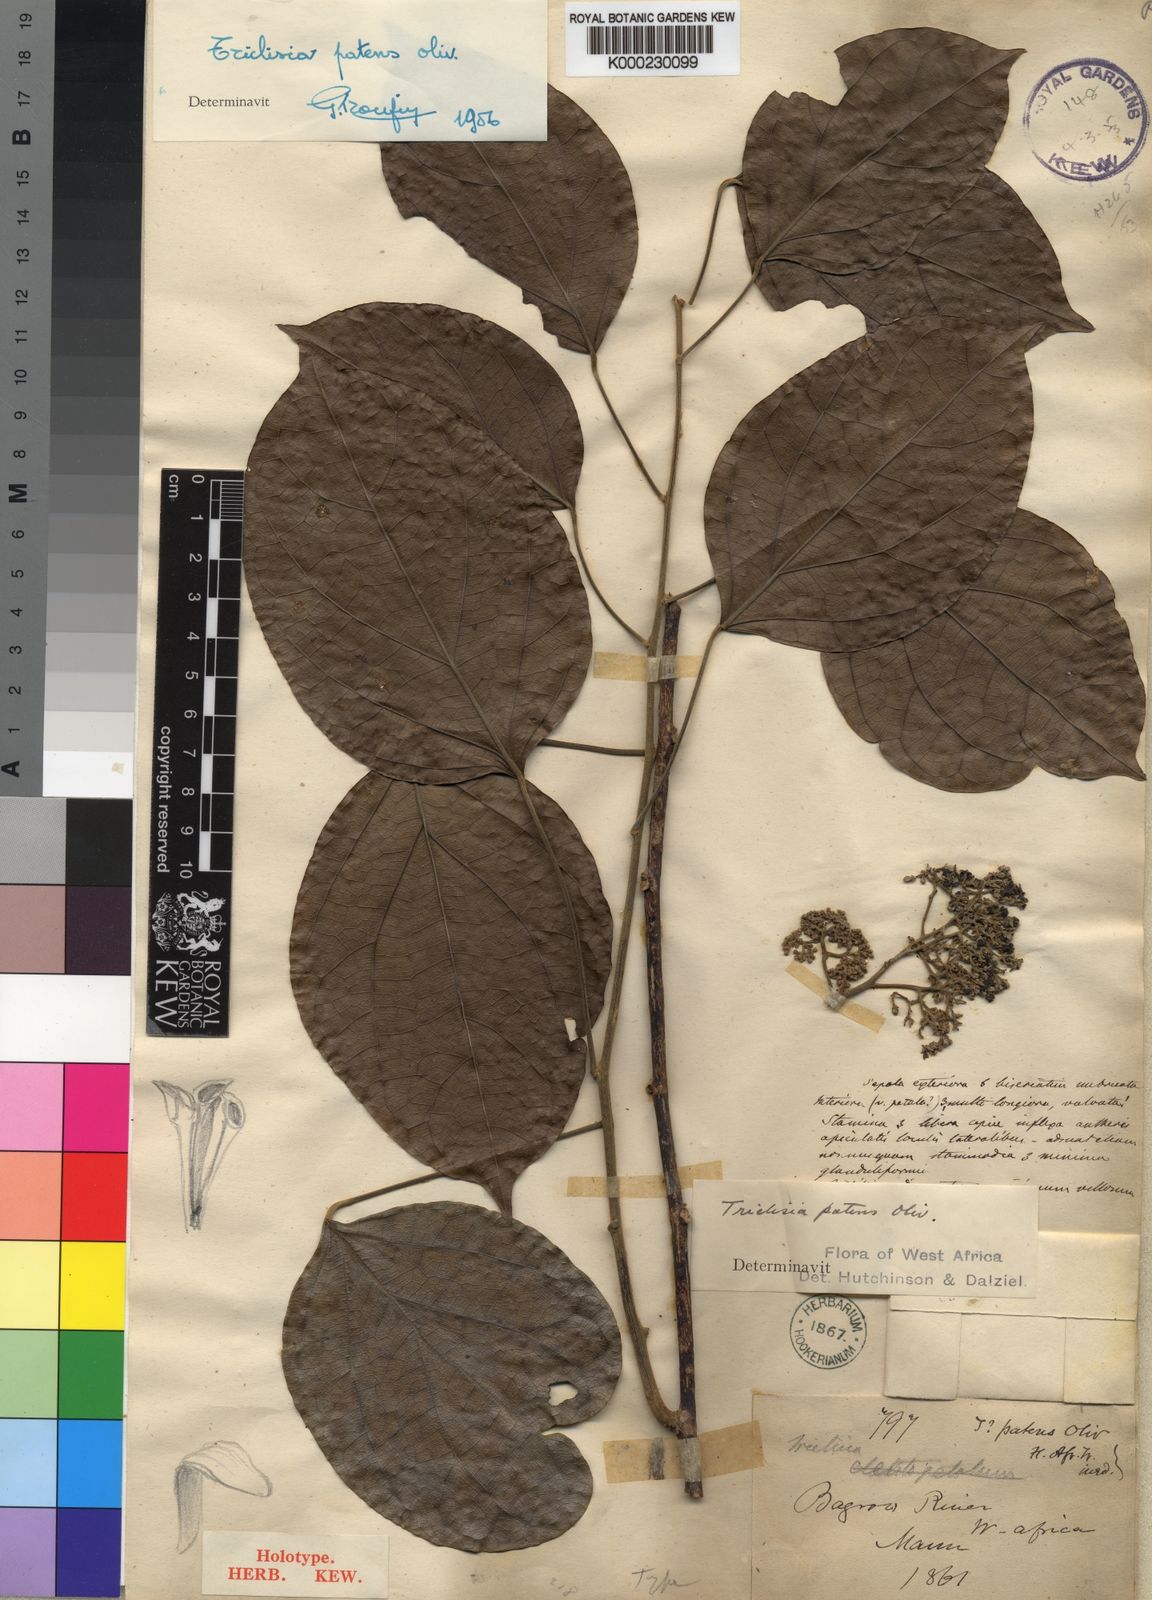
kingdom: Plantae
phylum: Tracheophyta
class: Magnoliopsida
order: Ranunculales
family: Menispermaceae
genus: Triclisia
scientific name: Triclisia patens
